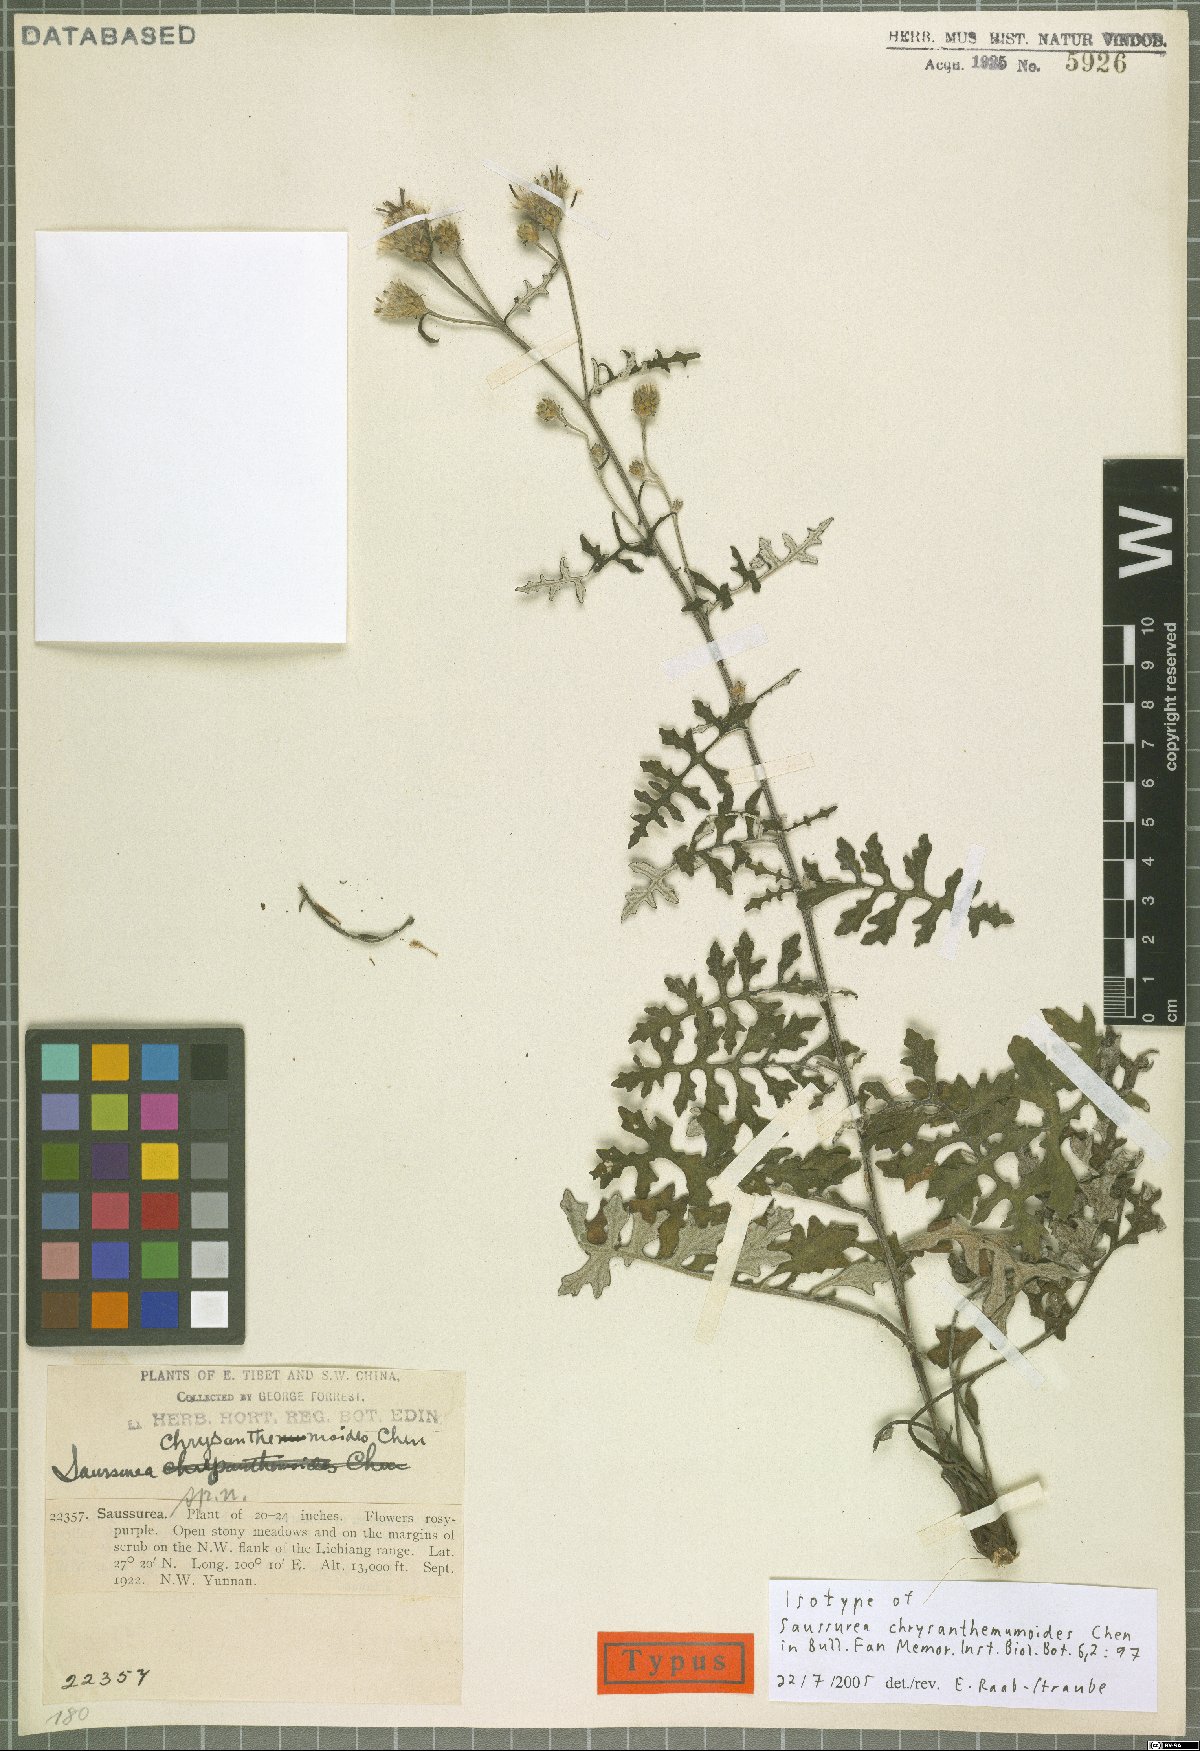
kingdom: Plantae
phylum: Tracheophyta
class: Magnoliopsida
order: Asterales
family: Asteraceae
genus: Saussurea
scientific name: Saussurea compta
